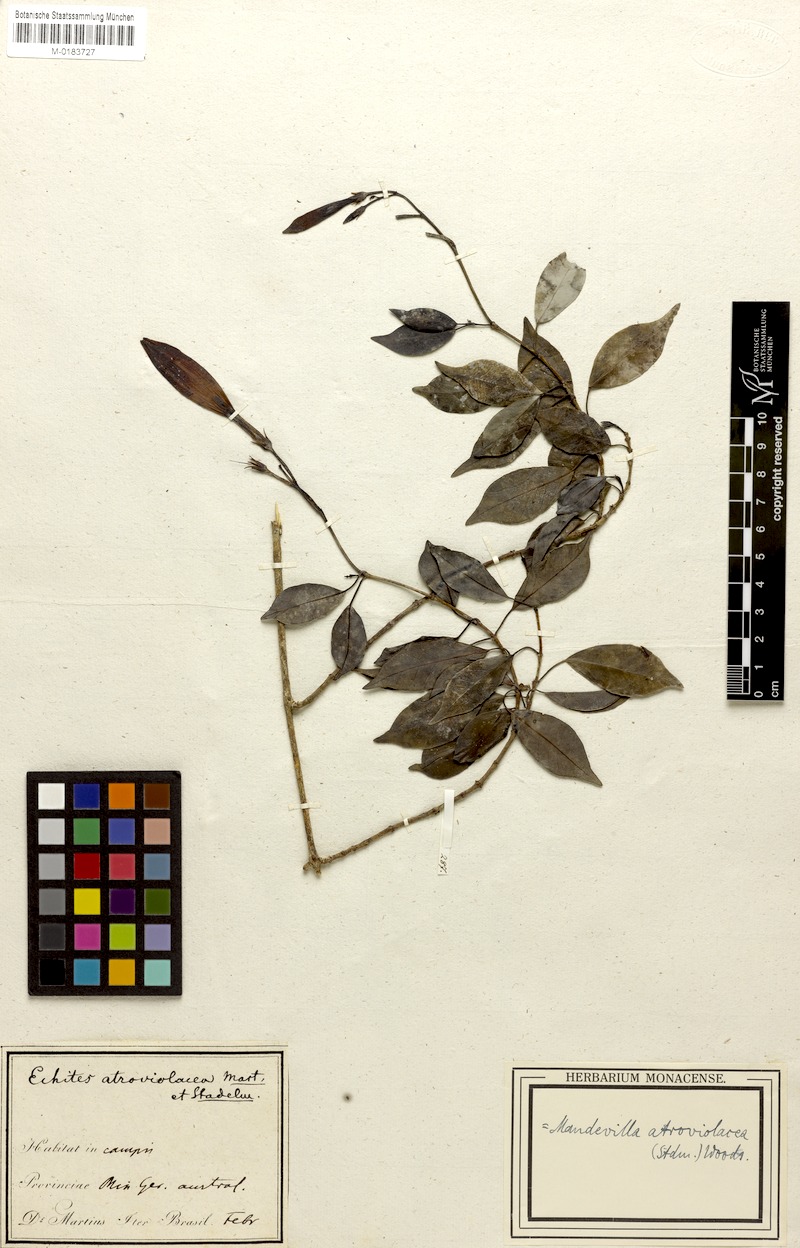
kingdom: Plantae
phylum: Tracheophyta
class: Magnoliopsida
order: Gentianales
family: Apocynaceae
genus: Mandevilla
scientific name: Mandevilla atroviolacea
